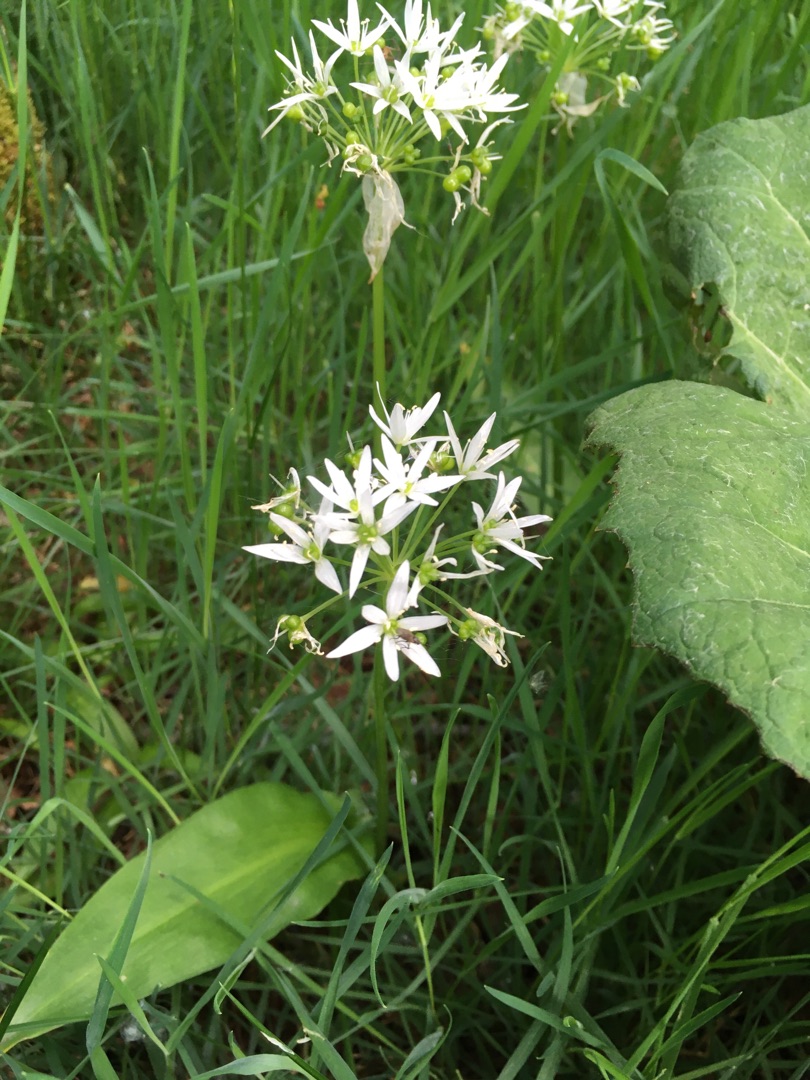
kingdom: Plantae
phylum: Tracheophyta
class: Liliopsida
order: Asparagales
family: Amaryllidaceae
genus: Allium
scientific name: Allium ursinum
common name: Rams-løg
